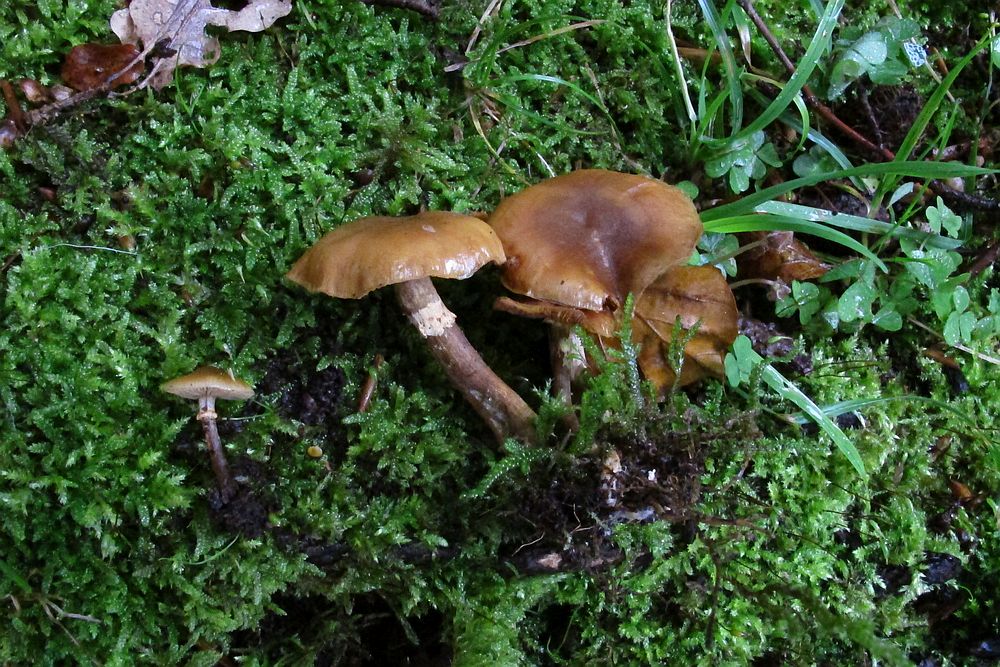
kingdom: Fungi
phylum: Basidiomycota
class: Agaricomycetes
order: Agaricales
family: Hymenogastraceae
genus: Galerina
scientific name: Galerina marginata
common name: randbæltet hjelmhat
